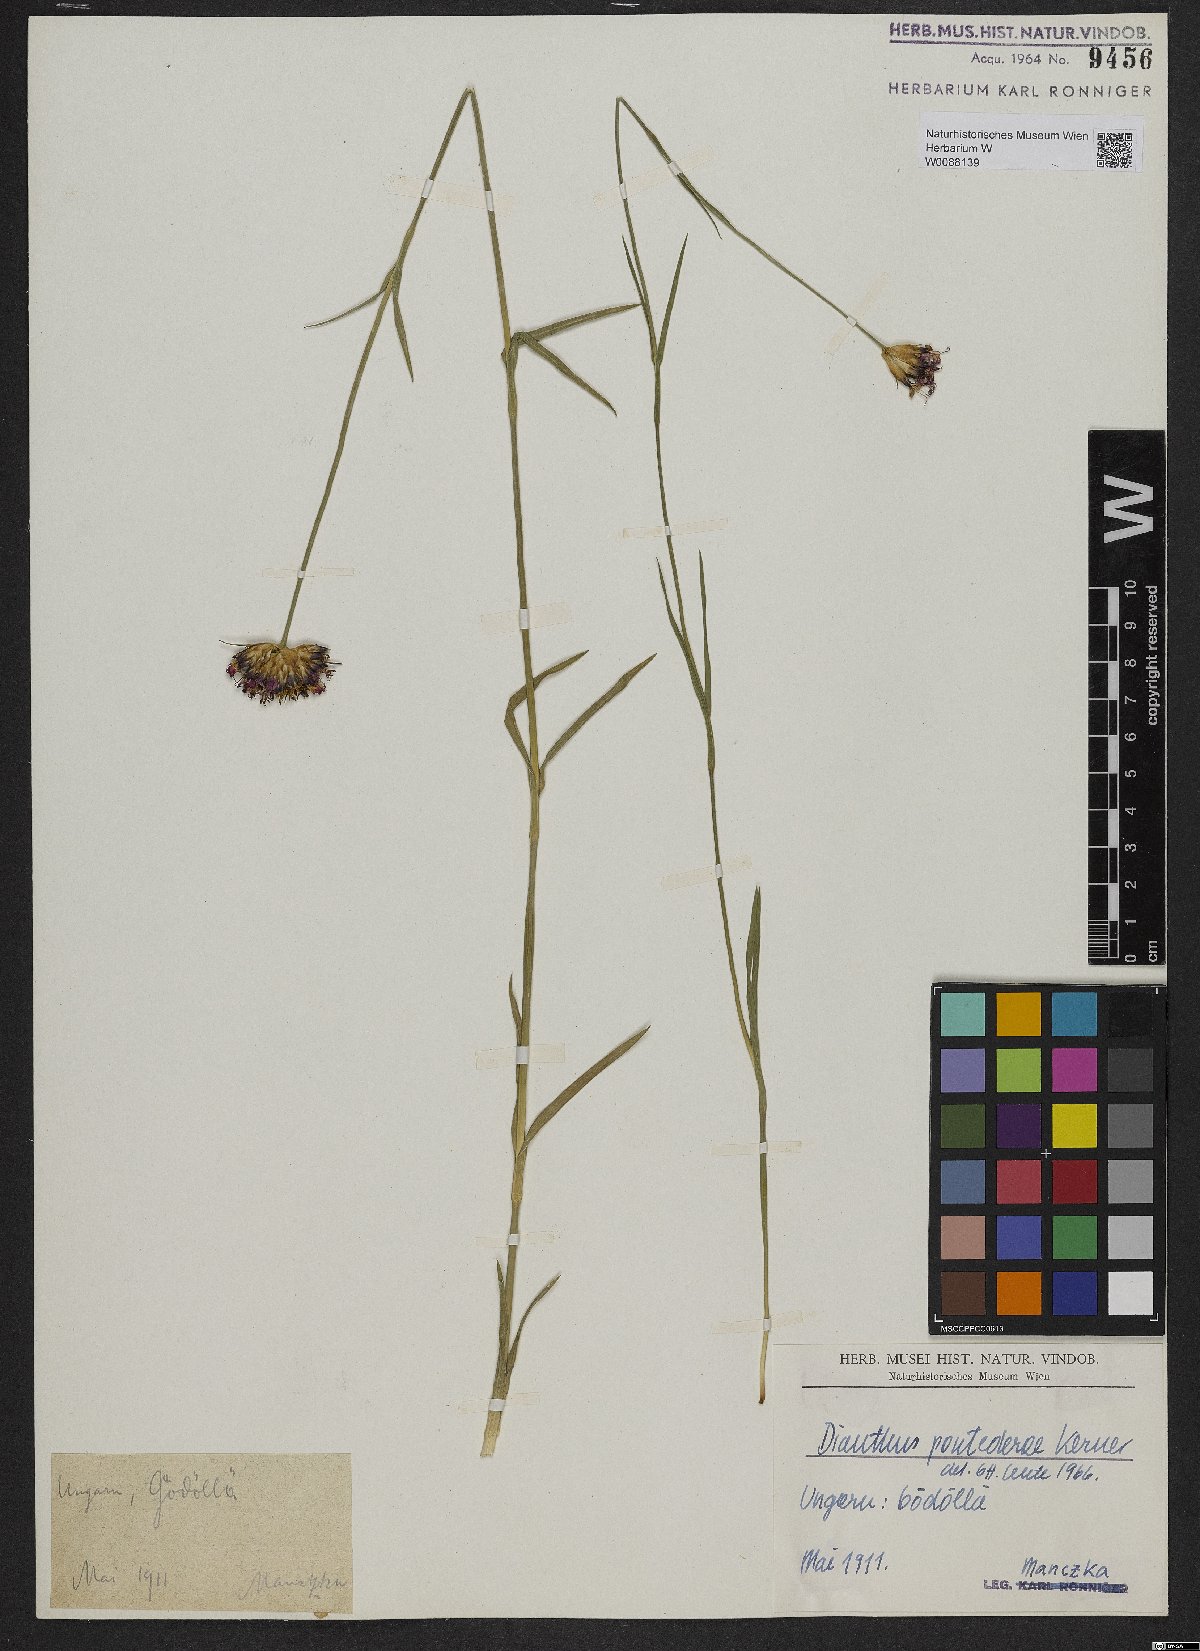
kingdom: Plantae
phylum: Tracheophyta
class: Magnoliopsida
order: Caryophyllales
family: Caryophyllaceae
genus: Dianthus
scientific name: Dianthus pontederae
